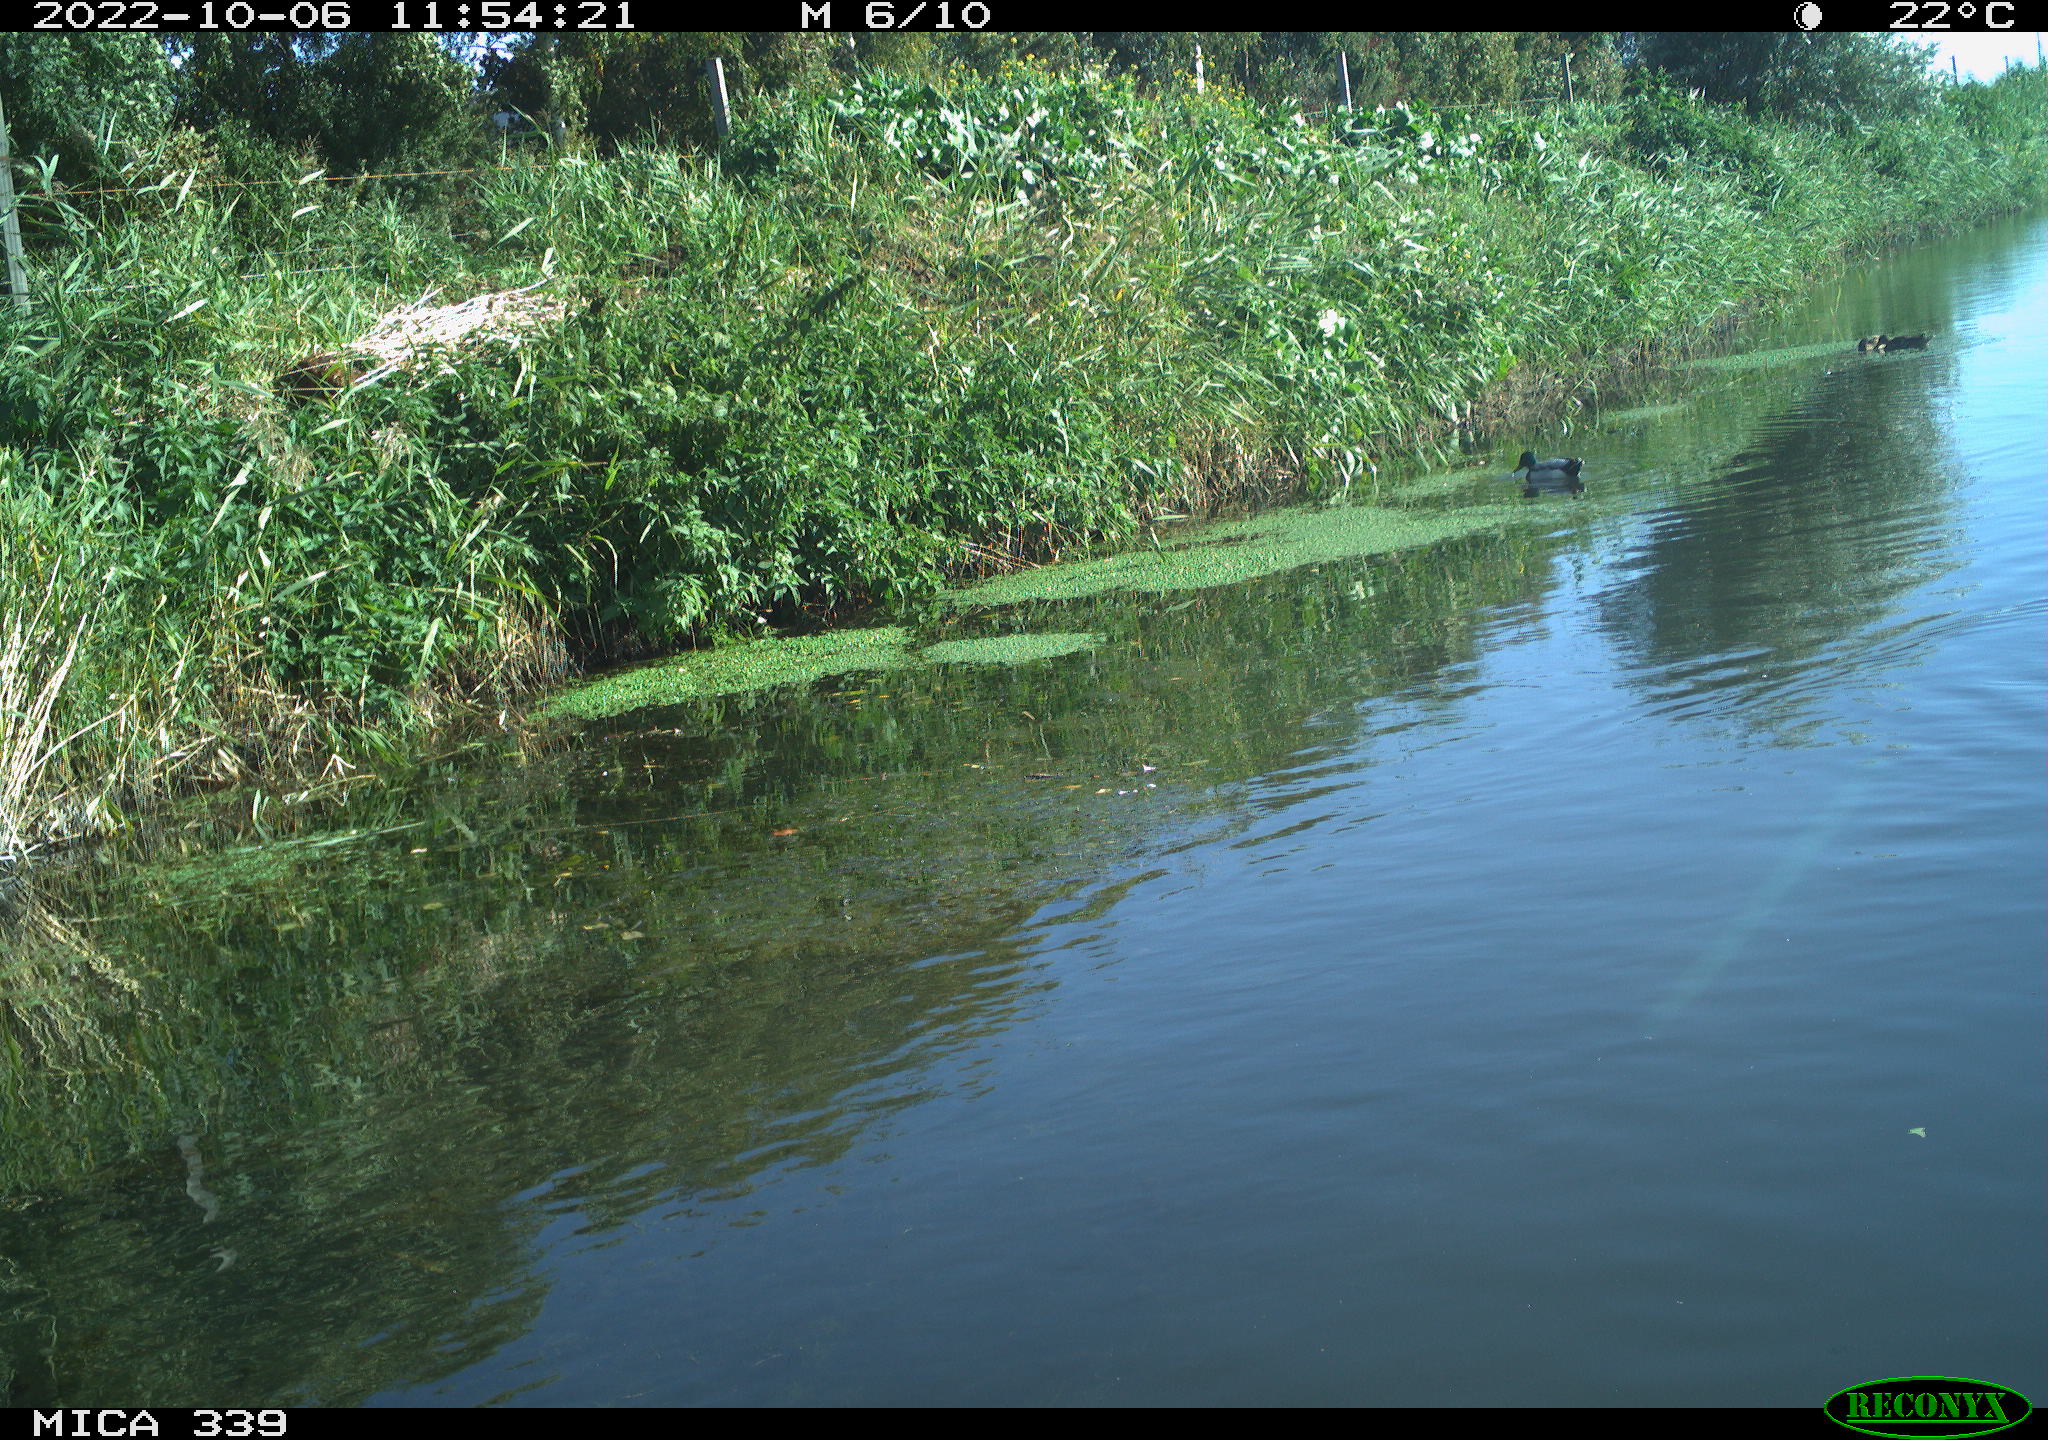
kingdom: Animalia
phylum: Chordata
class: Aves
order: Anseriformes
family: Anatidae
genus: Anas
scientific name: Anas platyrhynchos
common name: Mallard
